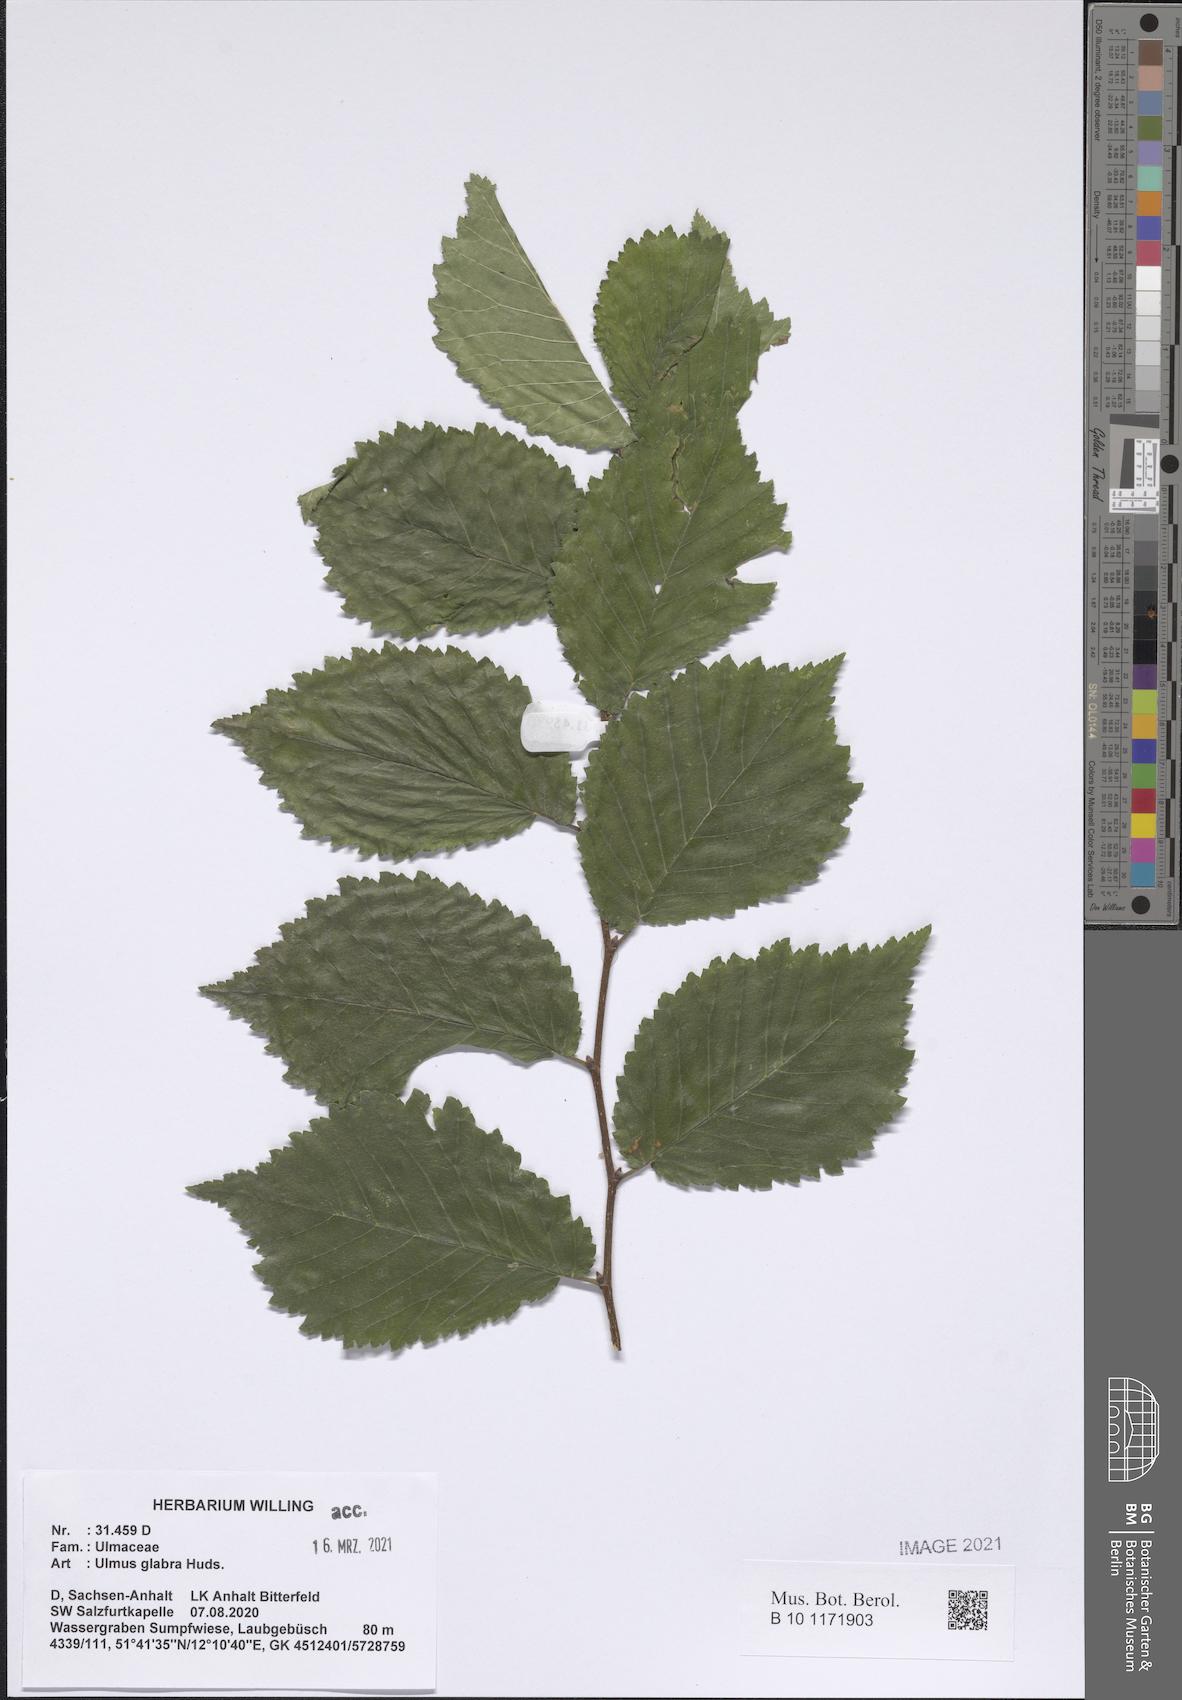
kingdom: Plantae
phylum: Tracheophyta
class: Magnoliopsida
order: Rosales
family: Ulmaceae
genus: Ulmus
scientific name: Ulmus glabra
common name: Wych elm
